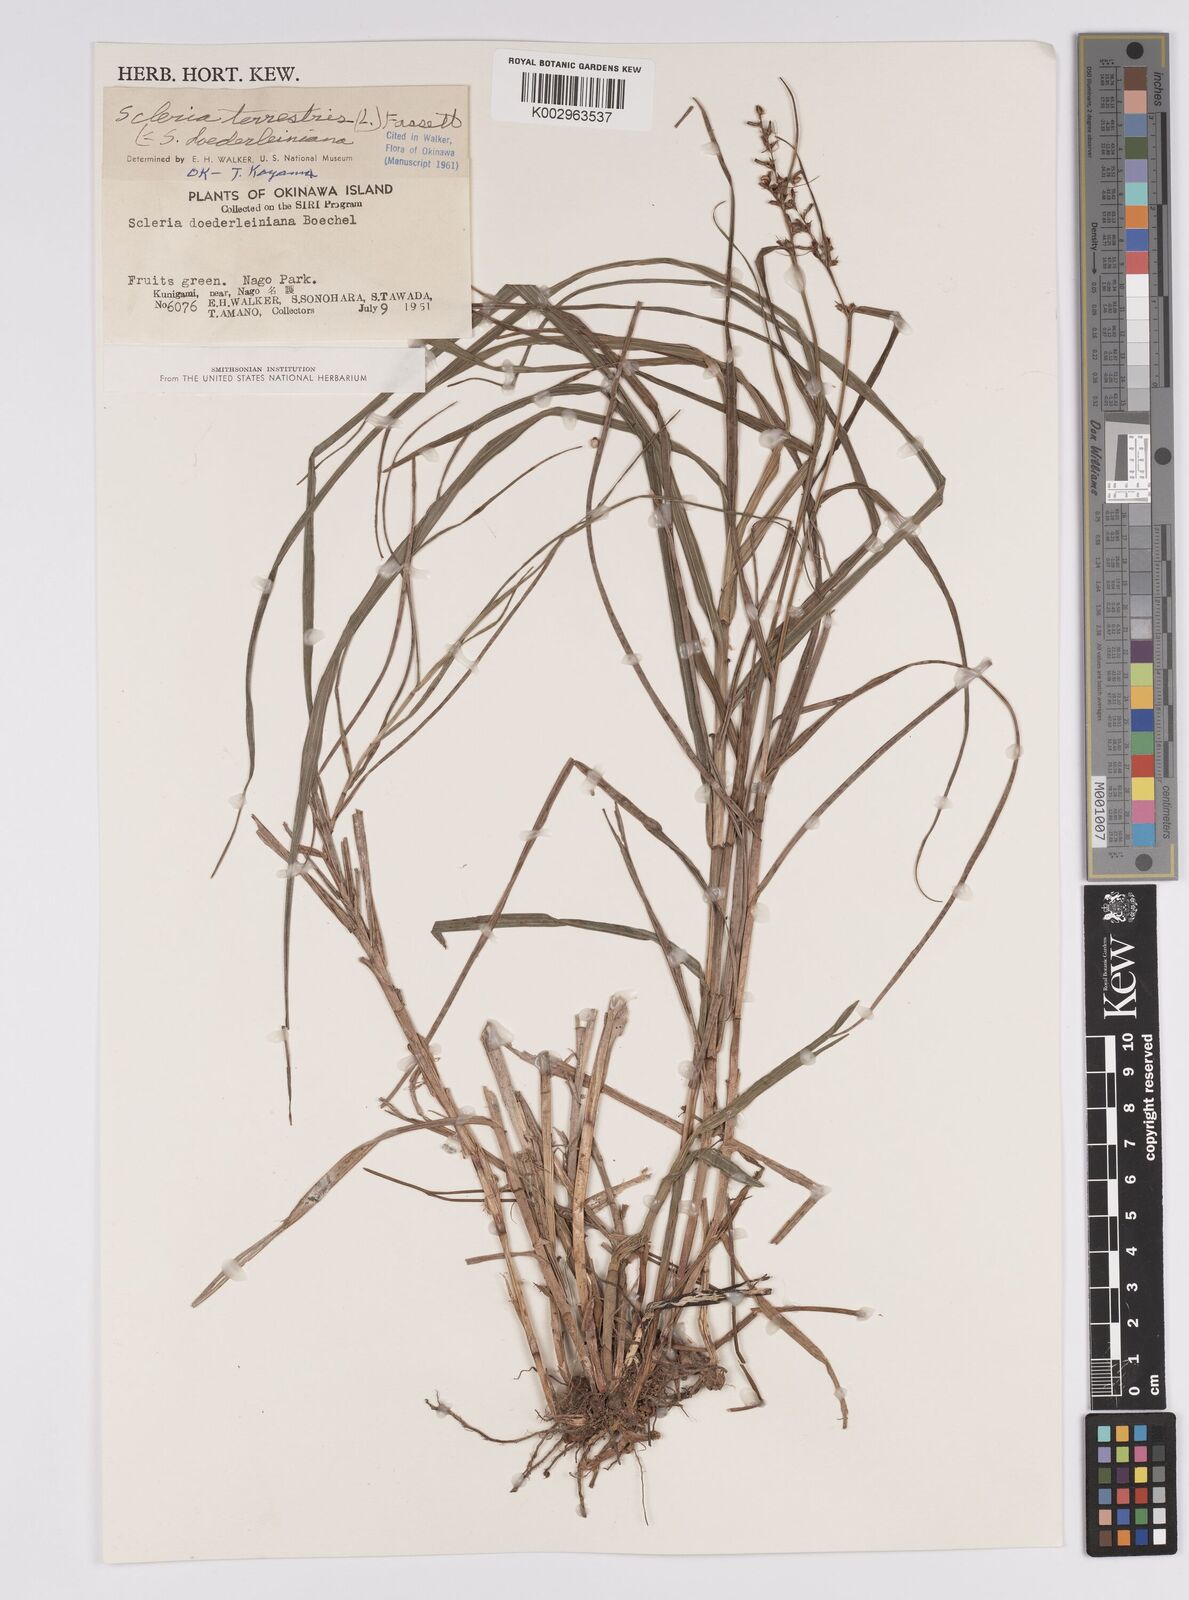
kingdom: Plantae
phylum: Tracheophyta
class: Liliopsida
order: Poales
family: Cyperaceae
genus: Scleria
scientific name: Scleria terrestris
